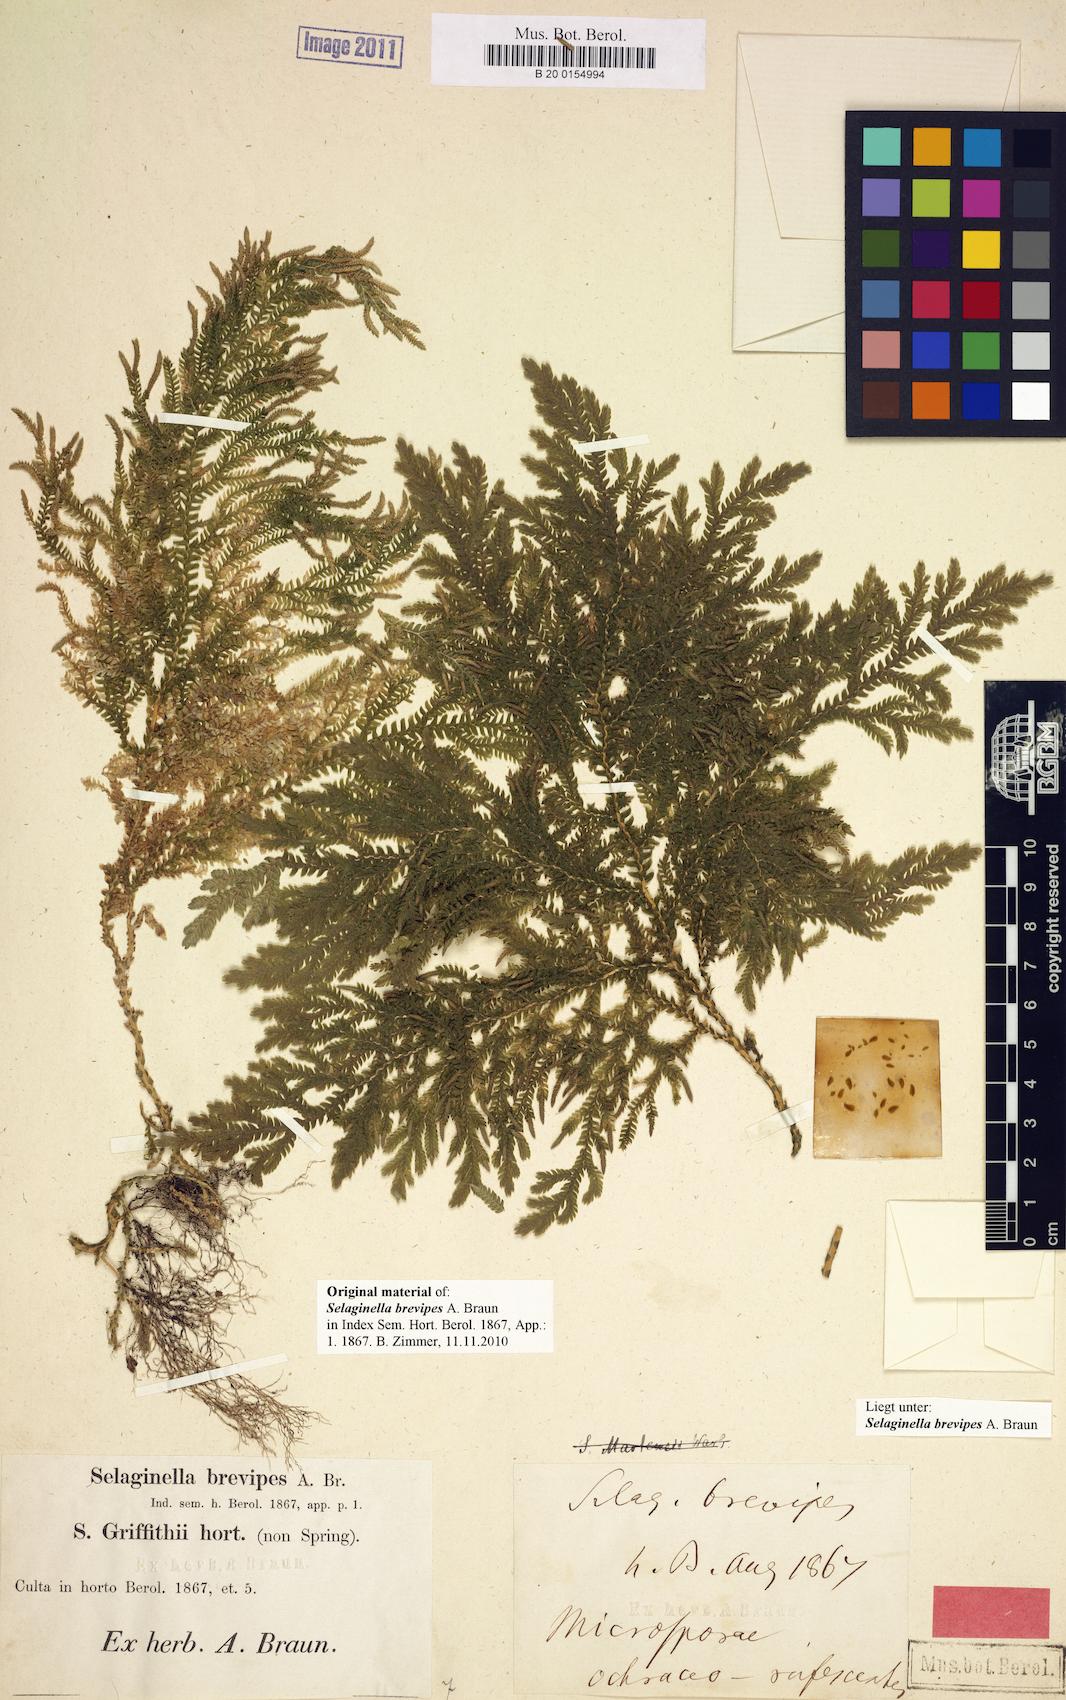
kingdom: Plantae
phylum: Tracheophyta
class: Lycopodiopsida
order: Selaginellales
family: Selaginellaceae
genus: Selaginella
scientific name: Selaginella brevipes
